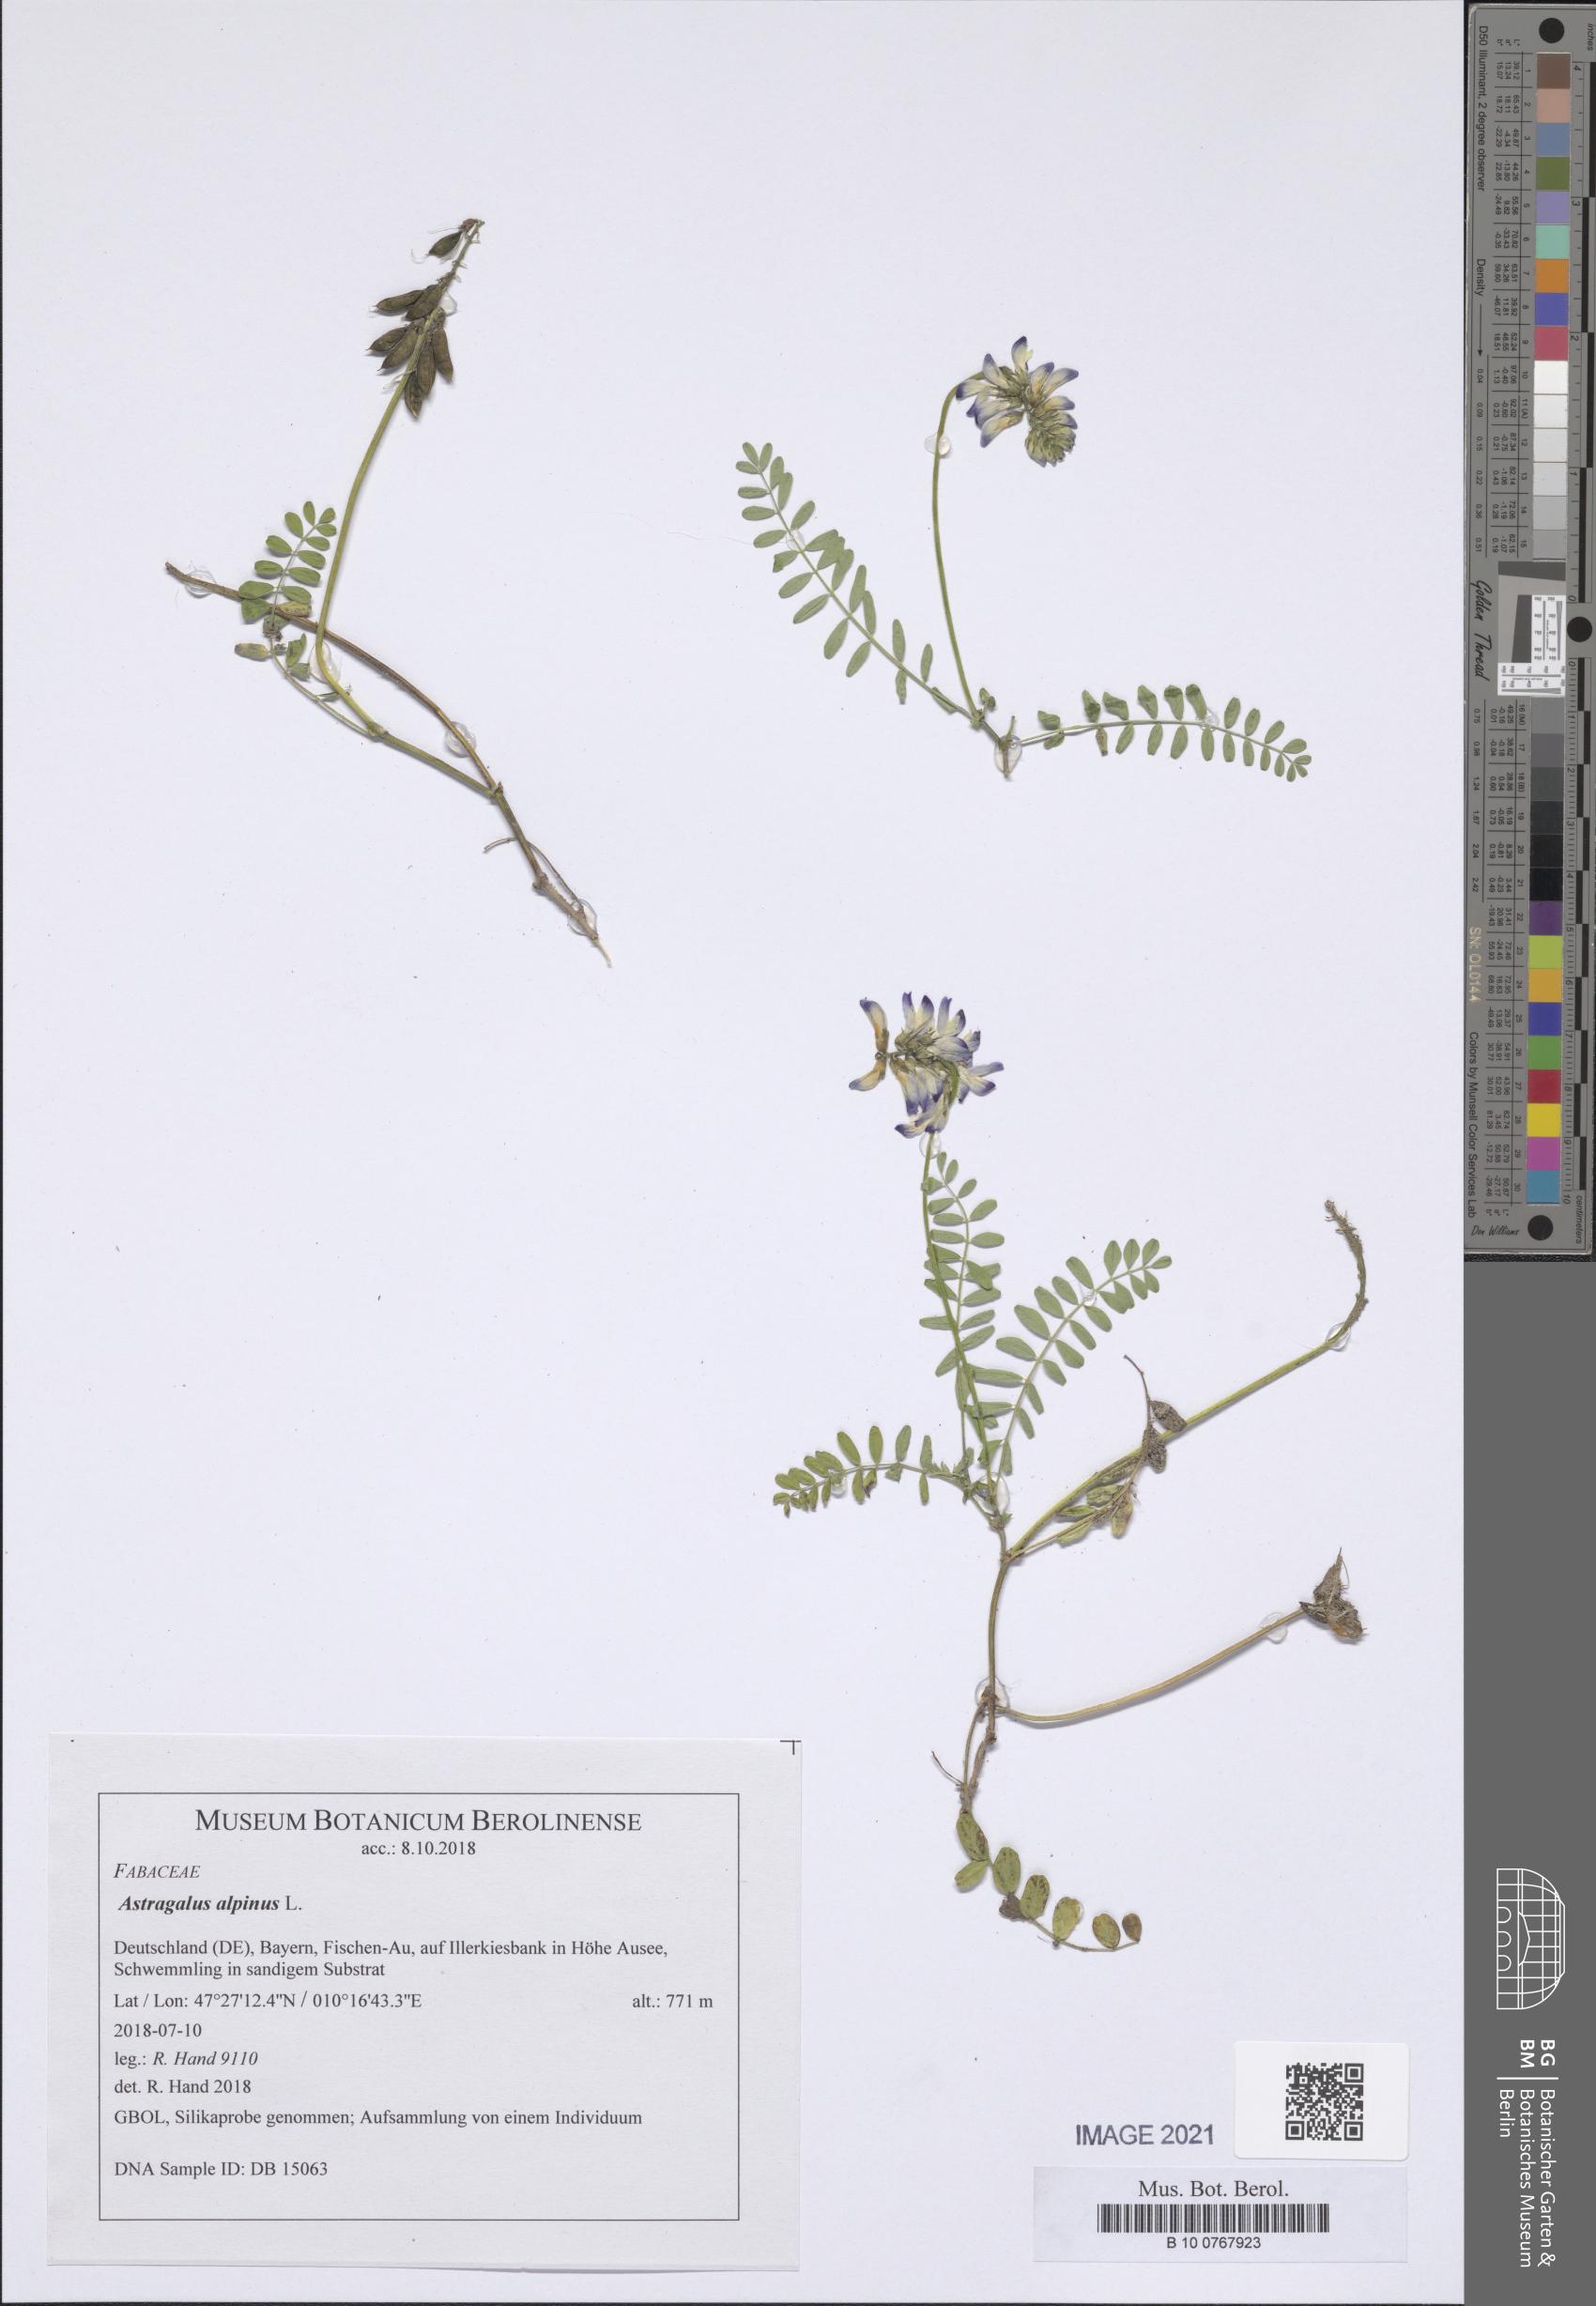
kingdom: Plantae
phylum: Tracheophyta
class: Magnoliopsida
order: Fabales
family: Fabaceae
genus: Astragalus
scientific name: Astragalus alpinus
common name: Alpine milk-vetch
